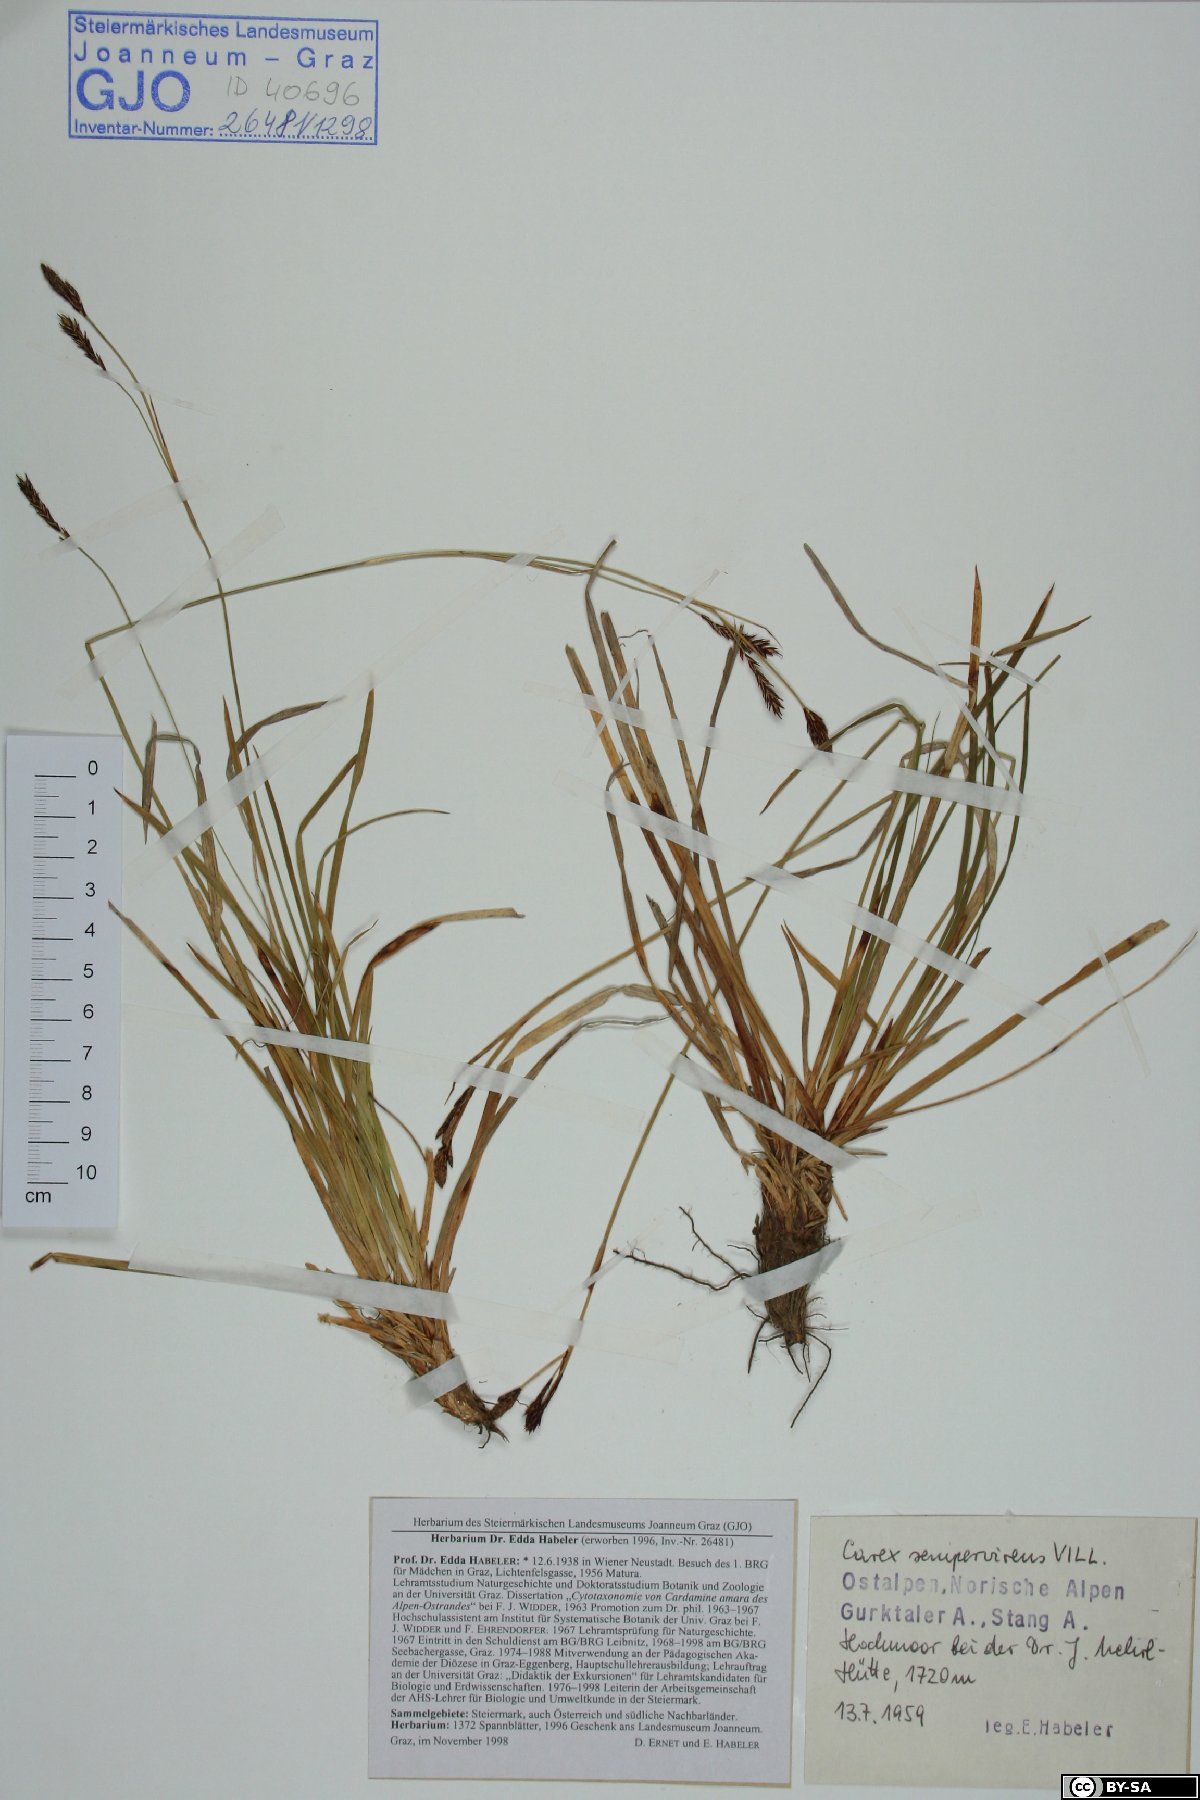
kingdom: Plantae
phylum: Tracheophyta
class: Liliopsida
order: Poales
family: Cyperaceae
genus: Carex
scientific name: Carex sempervirens
